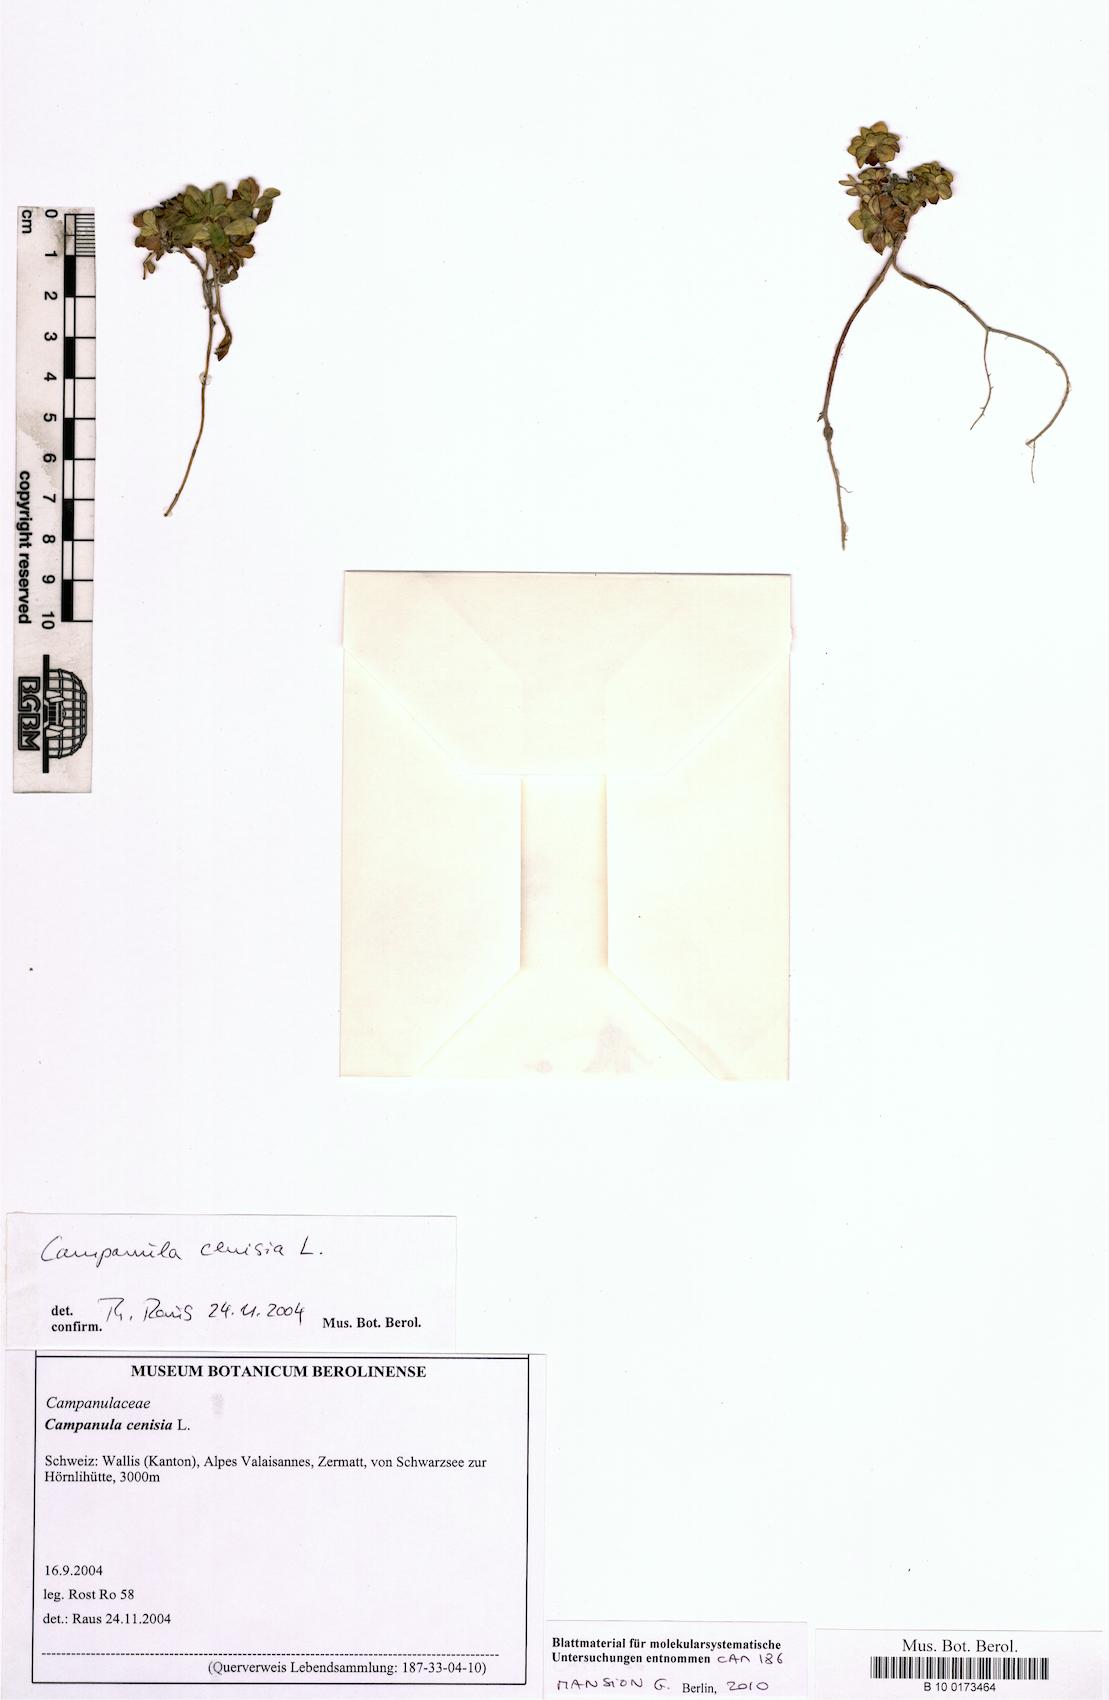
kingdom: Plantae
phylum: Tracheophyta
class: Magnoliopsida
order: Asterales
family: Campanulaceae
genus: Campanula
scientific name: Campanula cenisia
